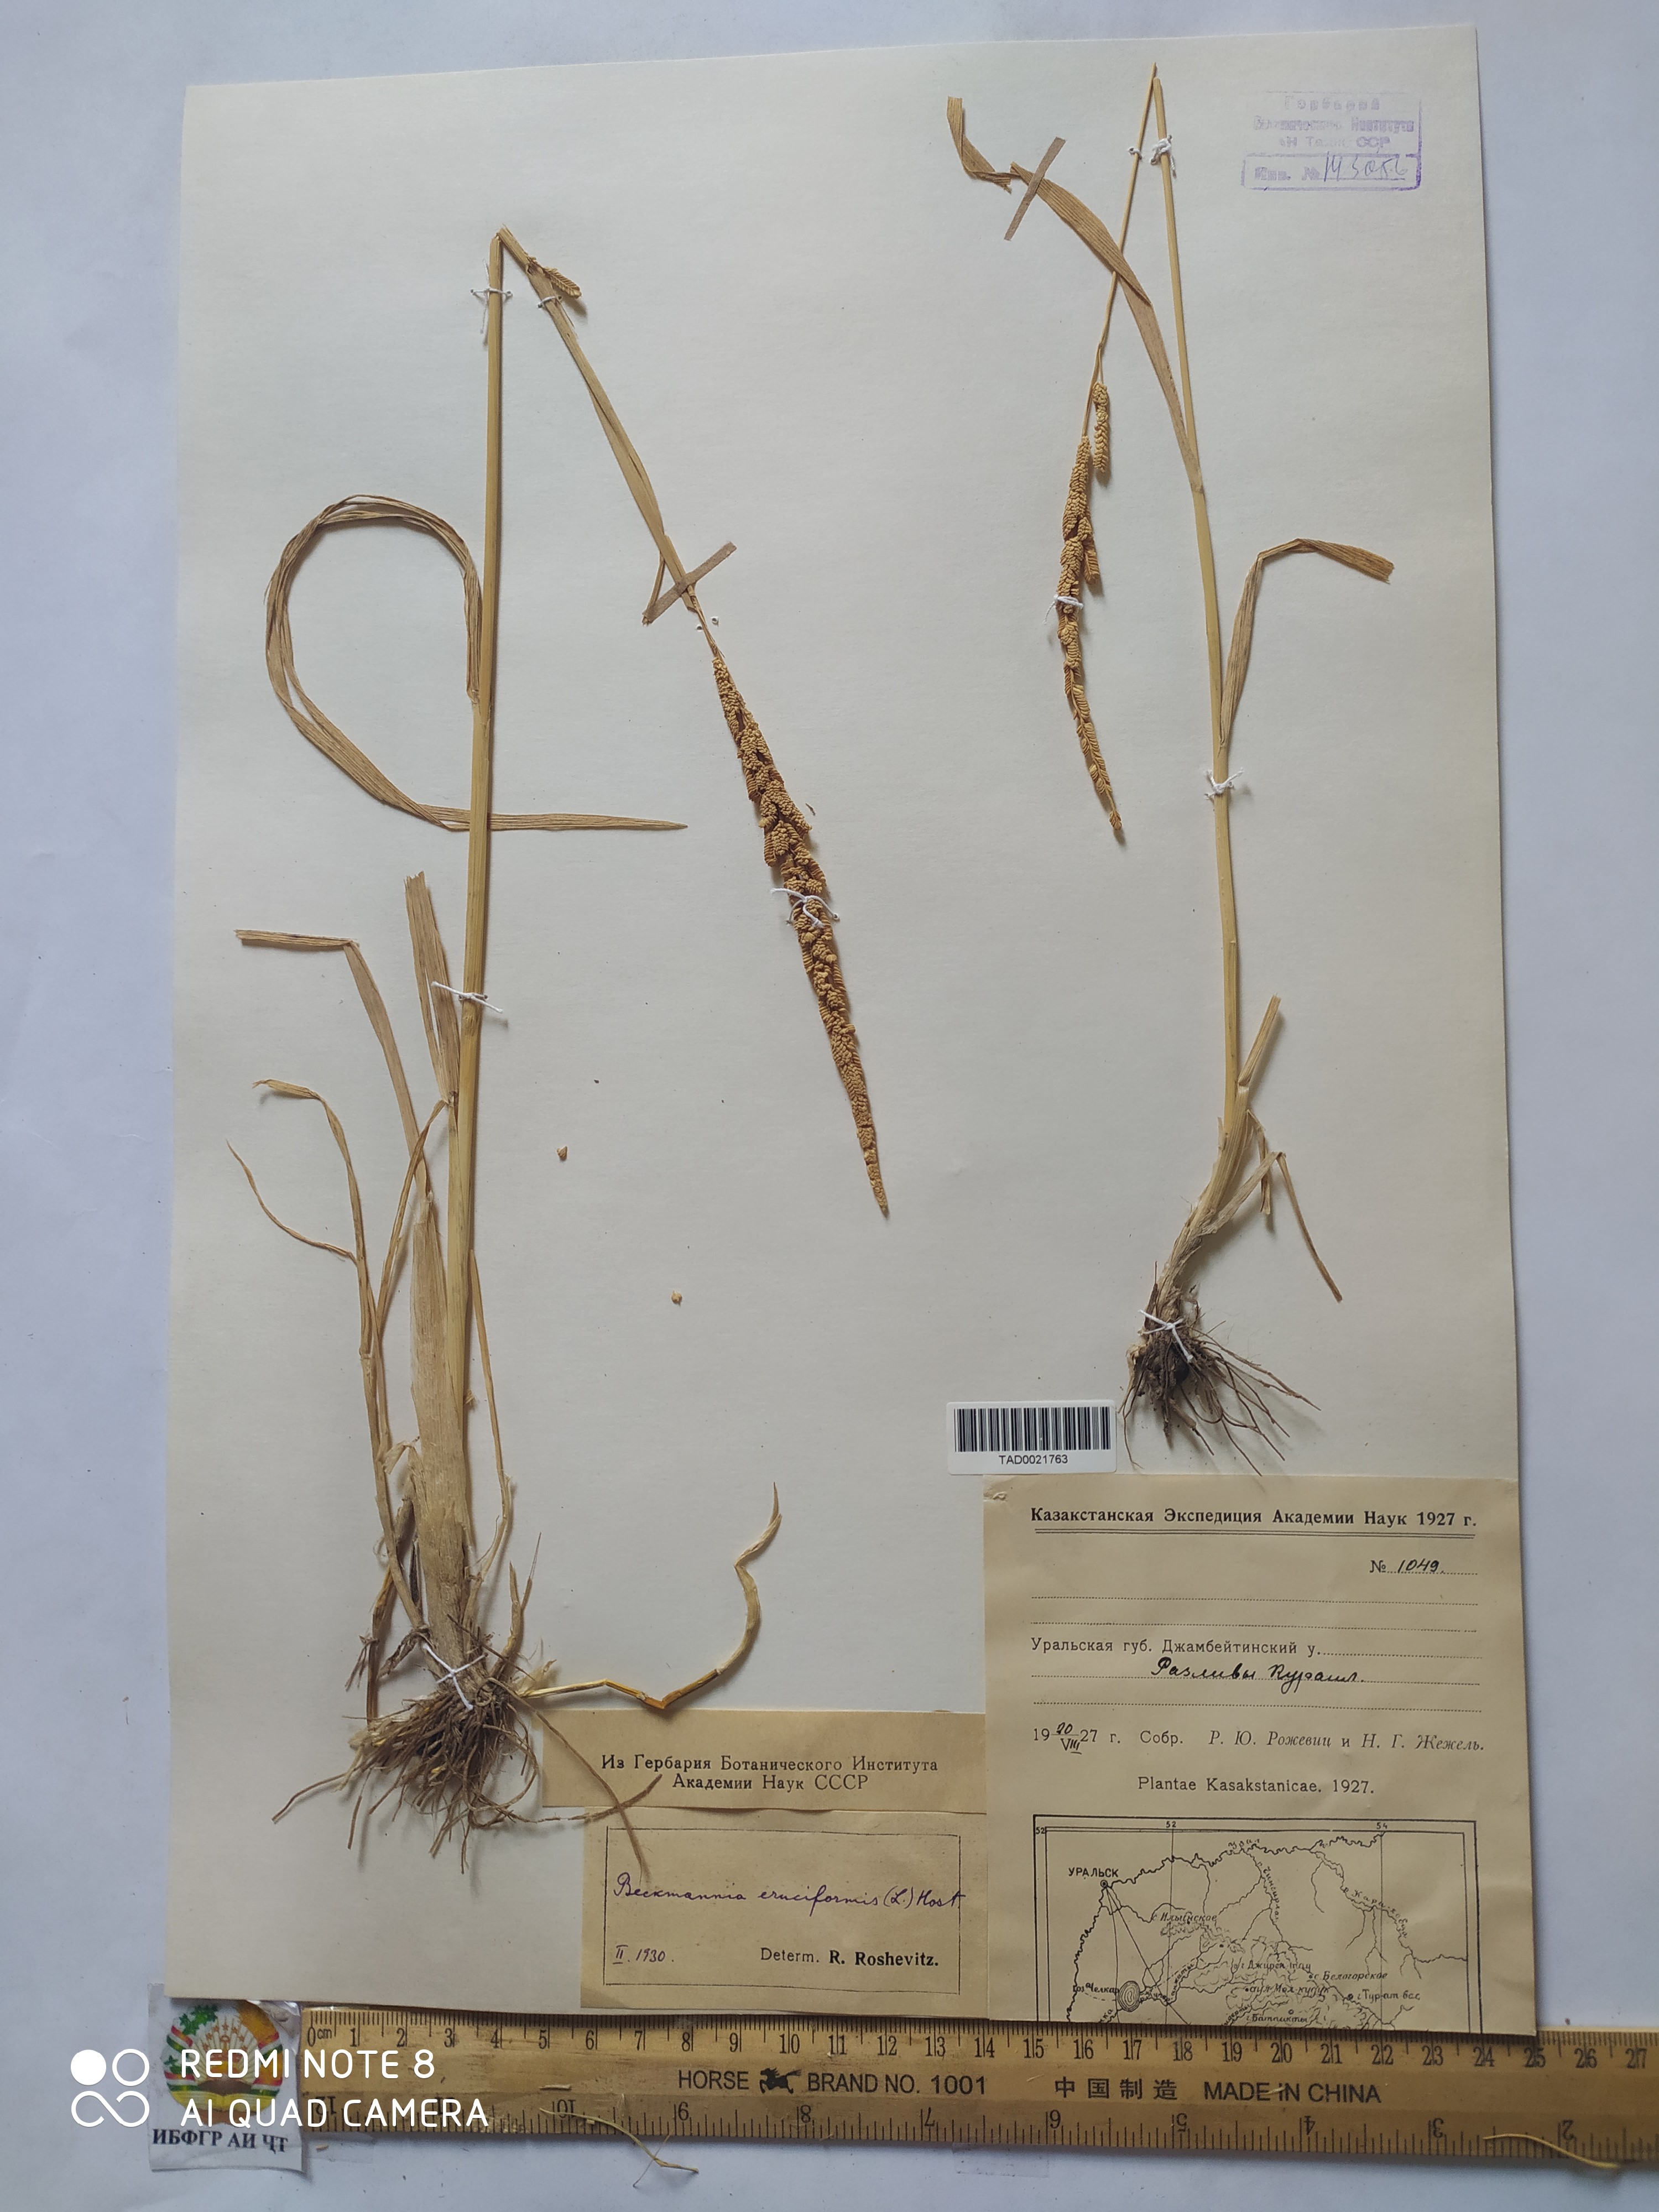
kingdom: Plantae
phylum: Tracheophyta
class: Liliopsida
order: Poales
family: Poaceae
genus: Enneapogon
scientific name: Enneapogon persicus
